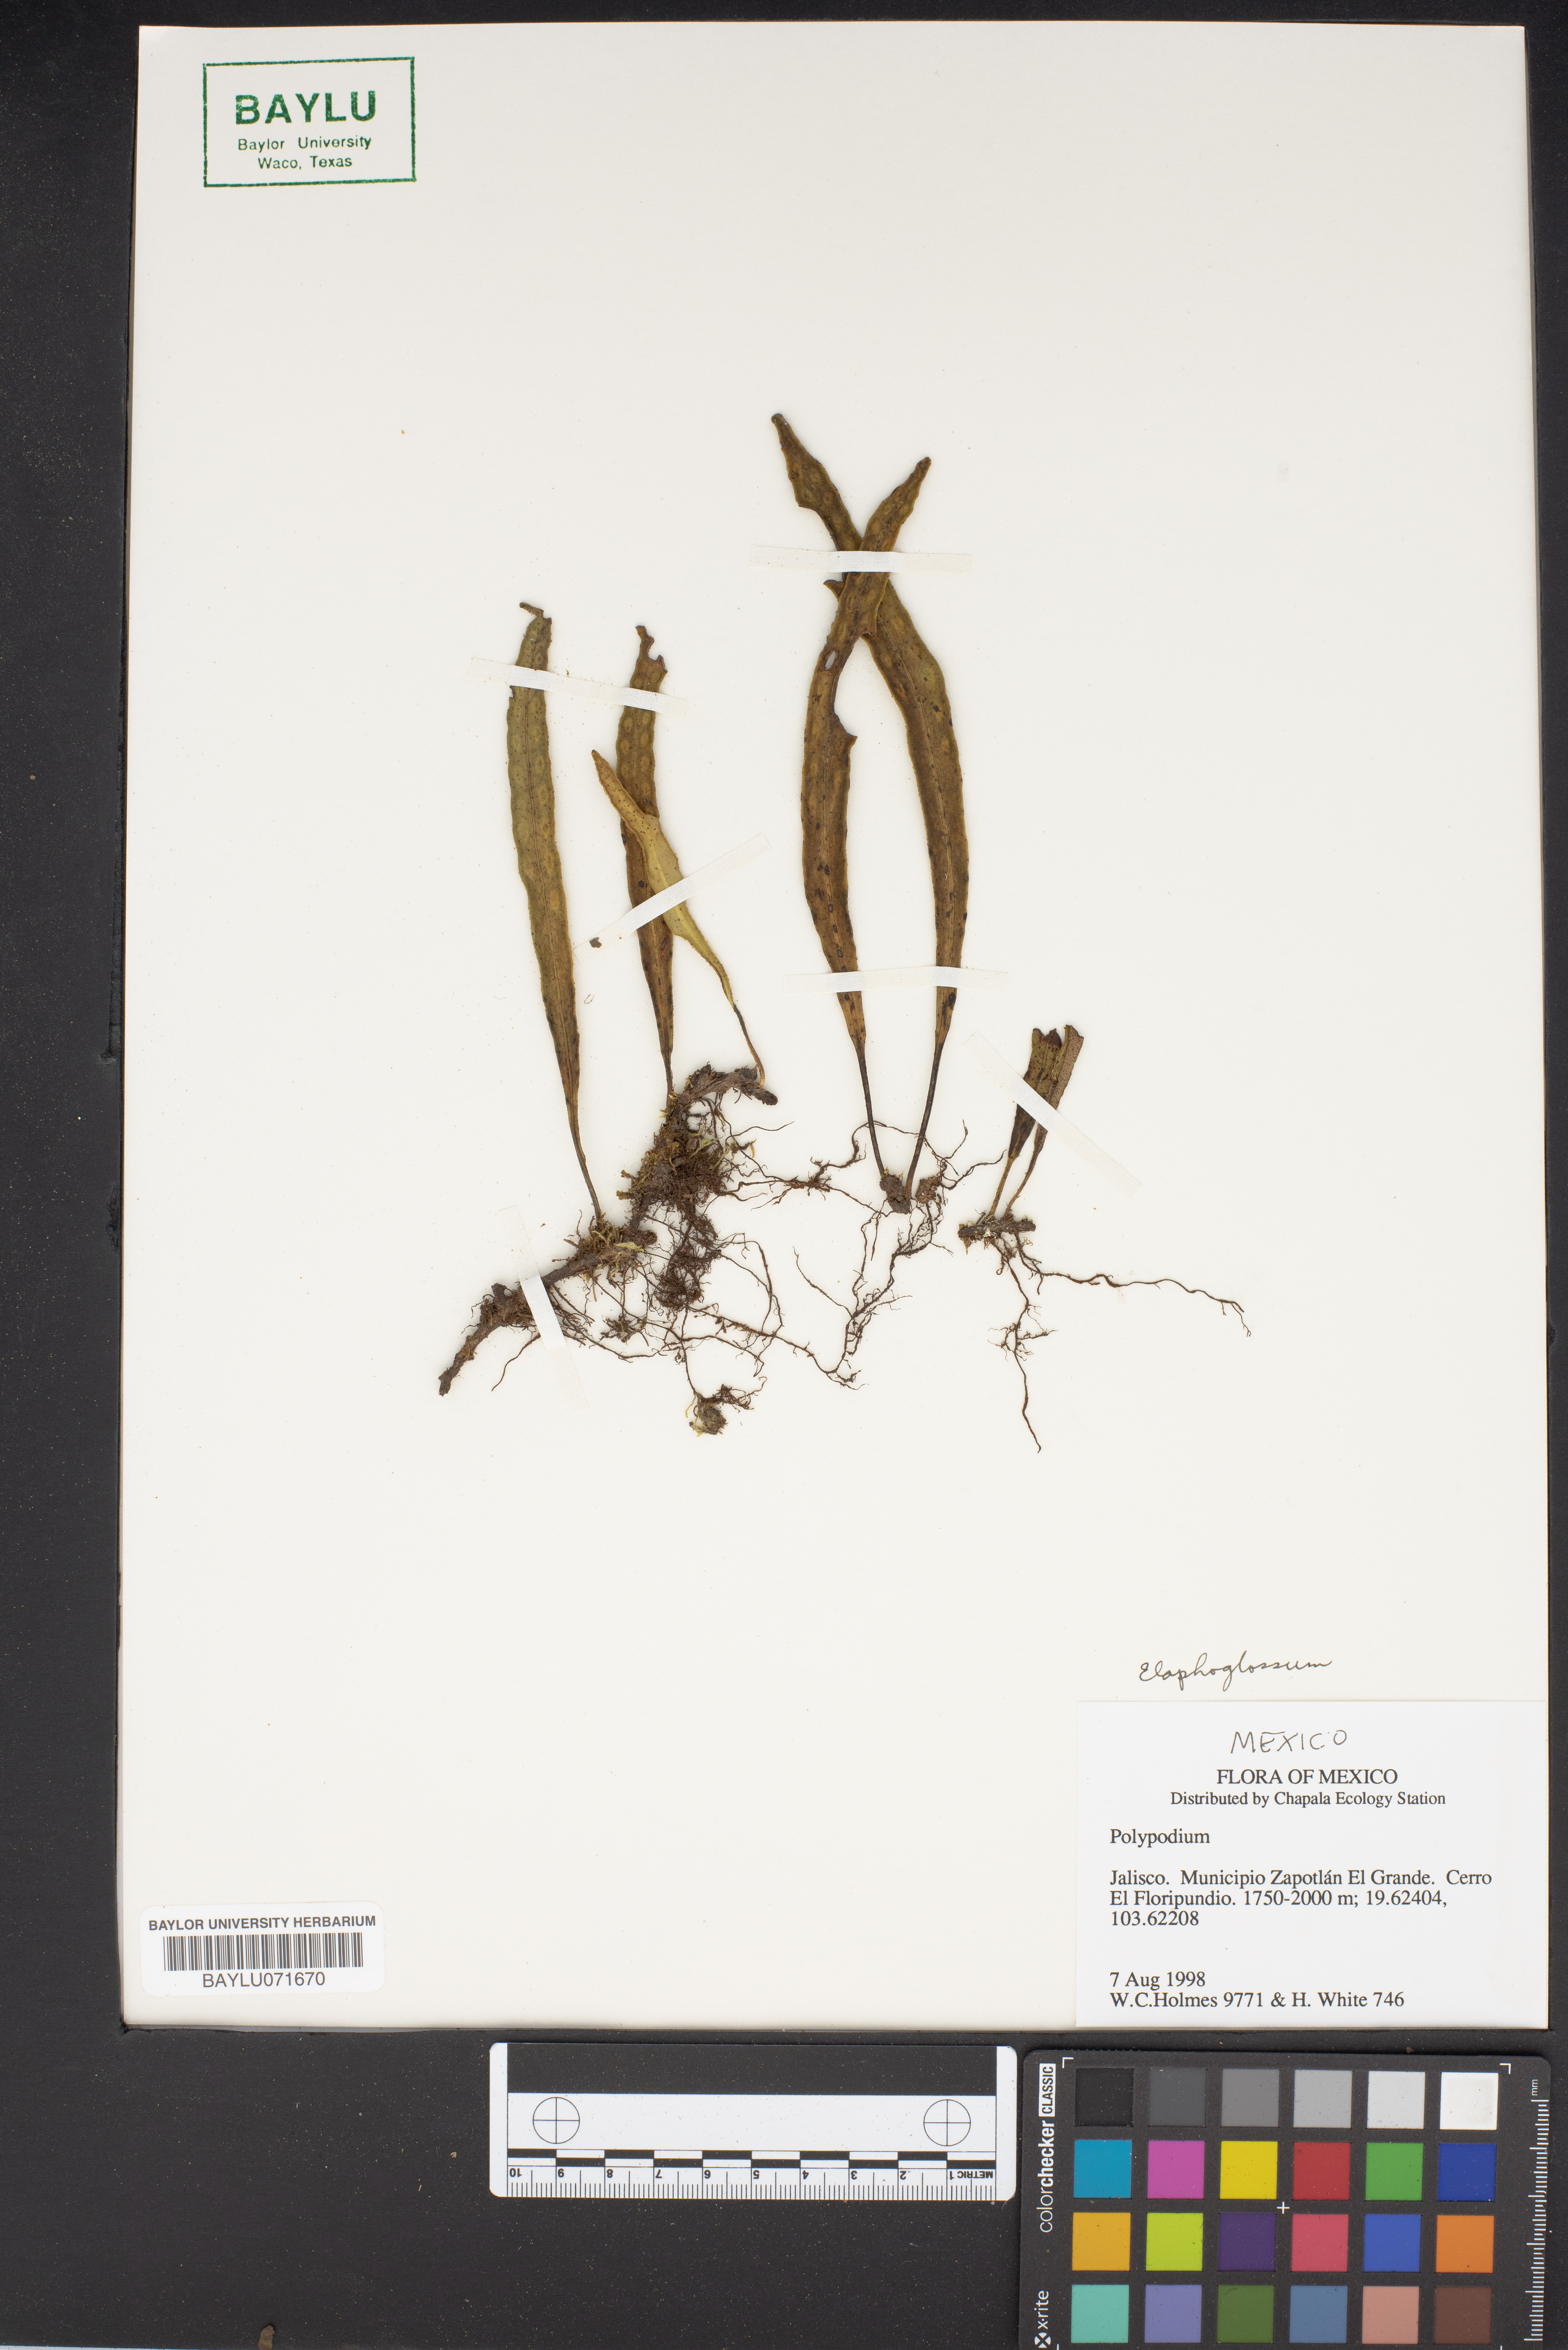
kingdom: Plantae
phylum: Tracheophyta
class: Polypodiopsida
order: Polypodiales
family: Polypodiaceae
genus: Polypodium
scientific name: Polypodium
